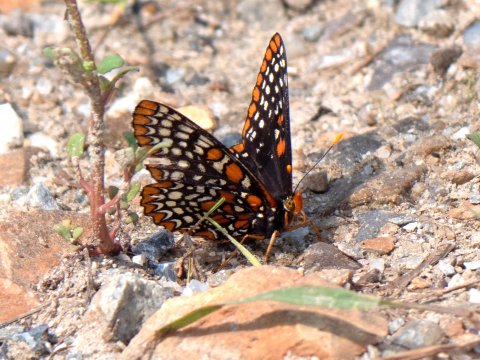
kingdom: Animalia
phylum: Arthropoda
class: Insecta
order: Lepidoptera
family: Nymphalidae
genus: Euphydryas
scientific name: Euphydryas phaeton
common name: Baltimore Checkerspot
